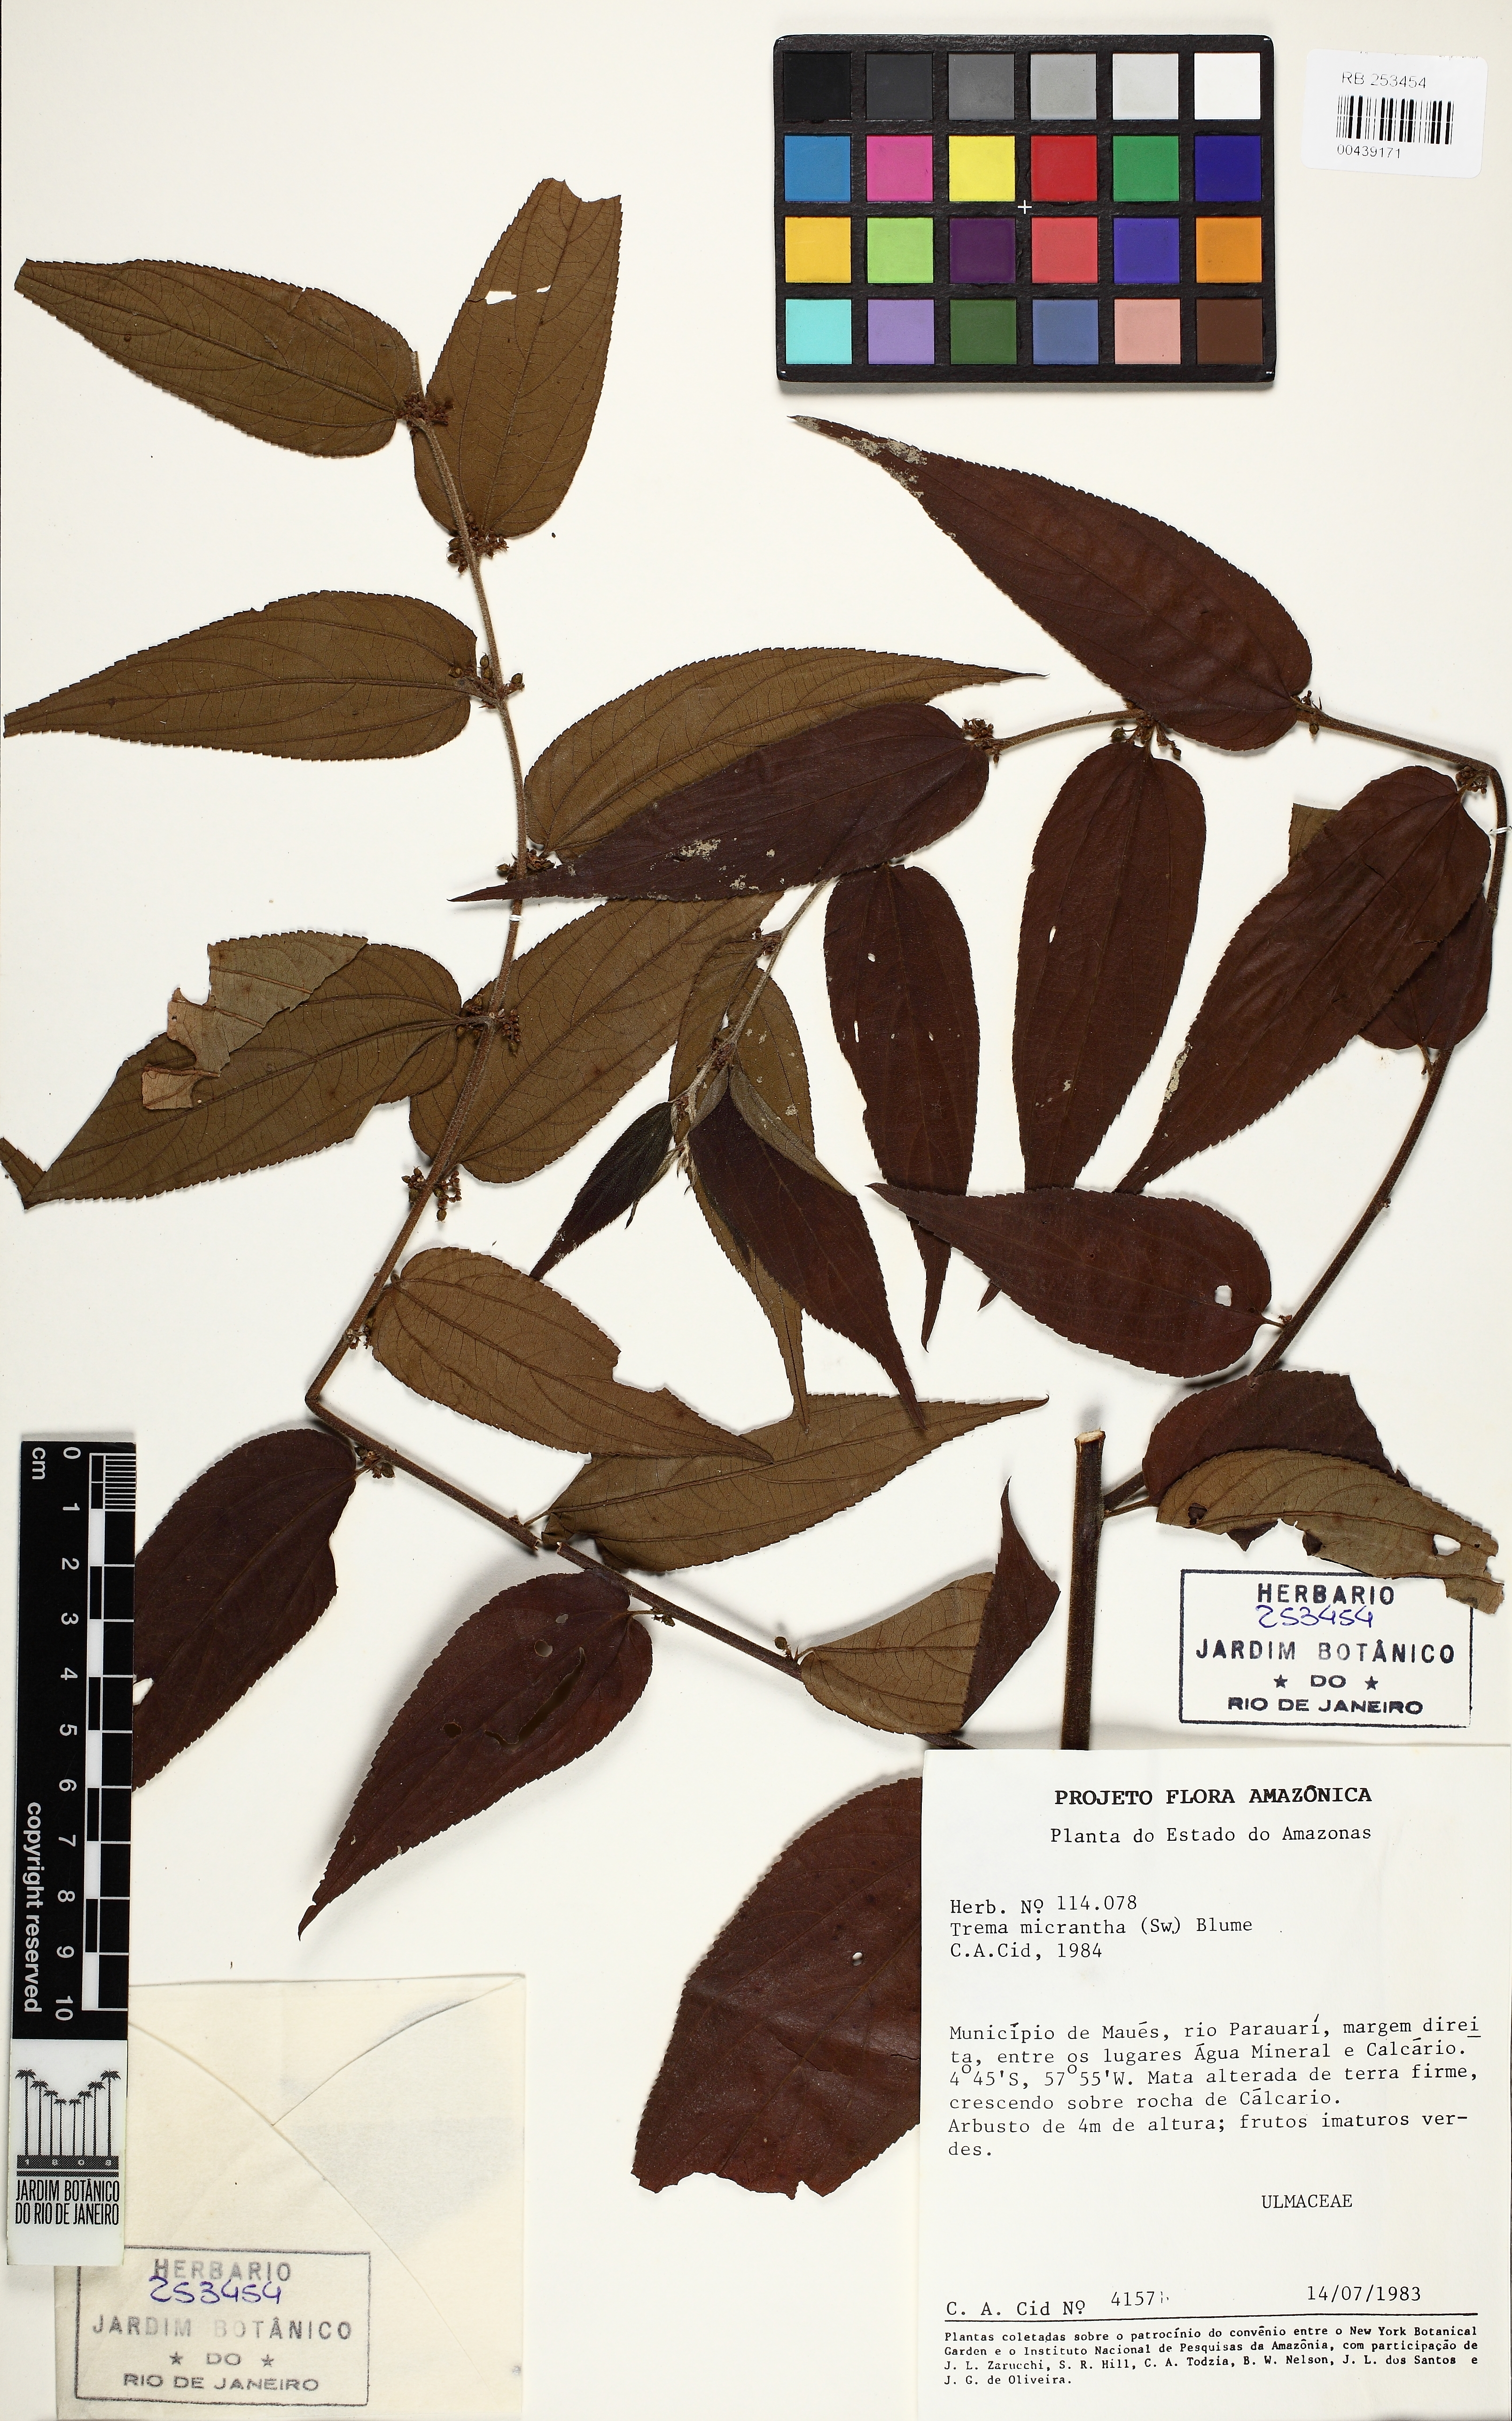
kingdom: Plantae
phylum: Tracheophyta
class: Magnoliopsida
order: Rosales
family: Cannabaceae
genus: Trema
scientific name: Trema micranthum
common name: Jamaican nettletree
